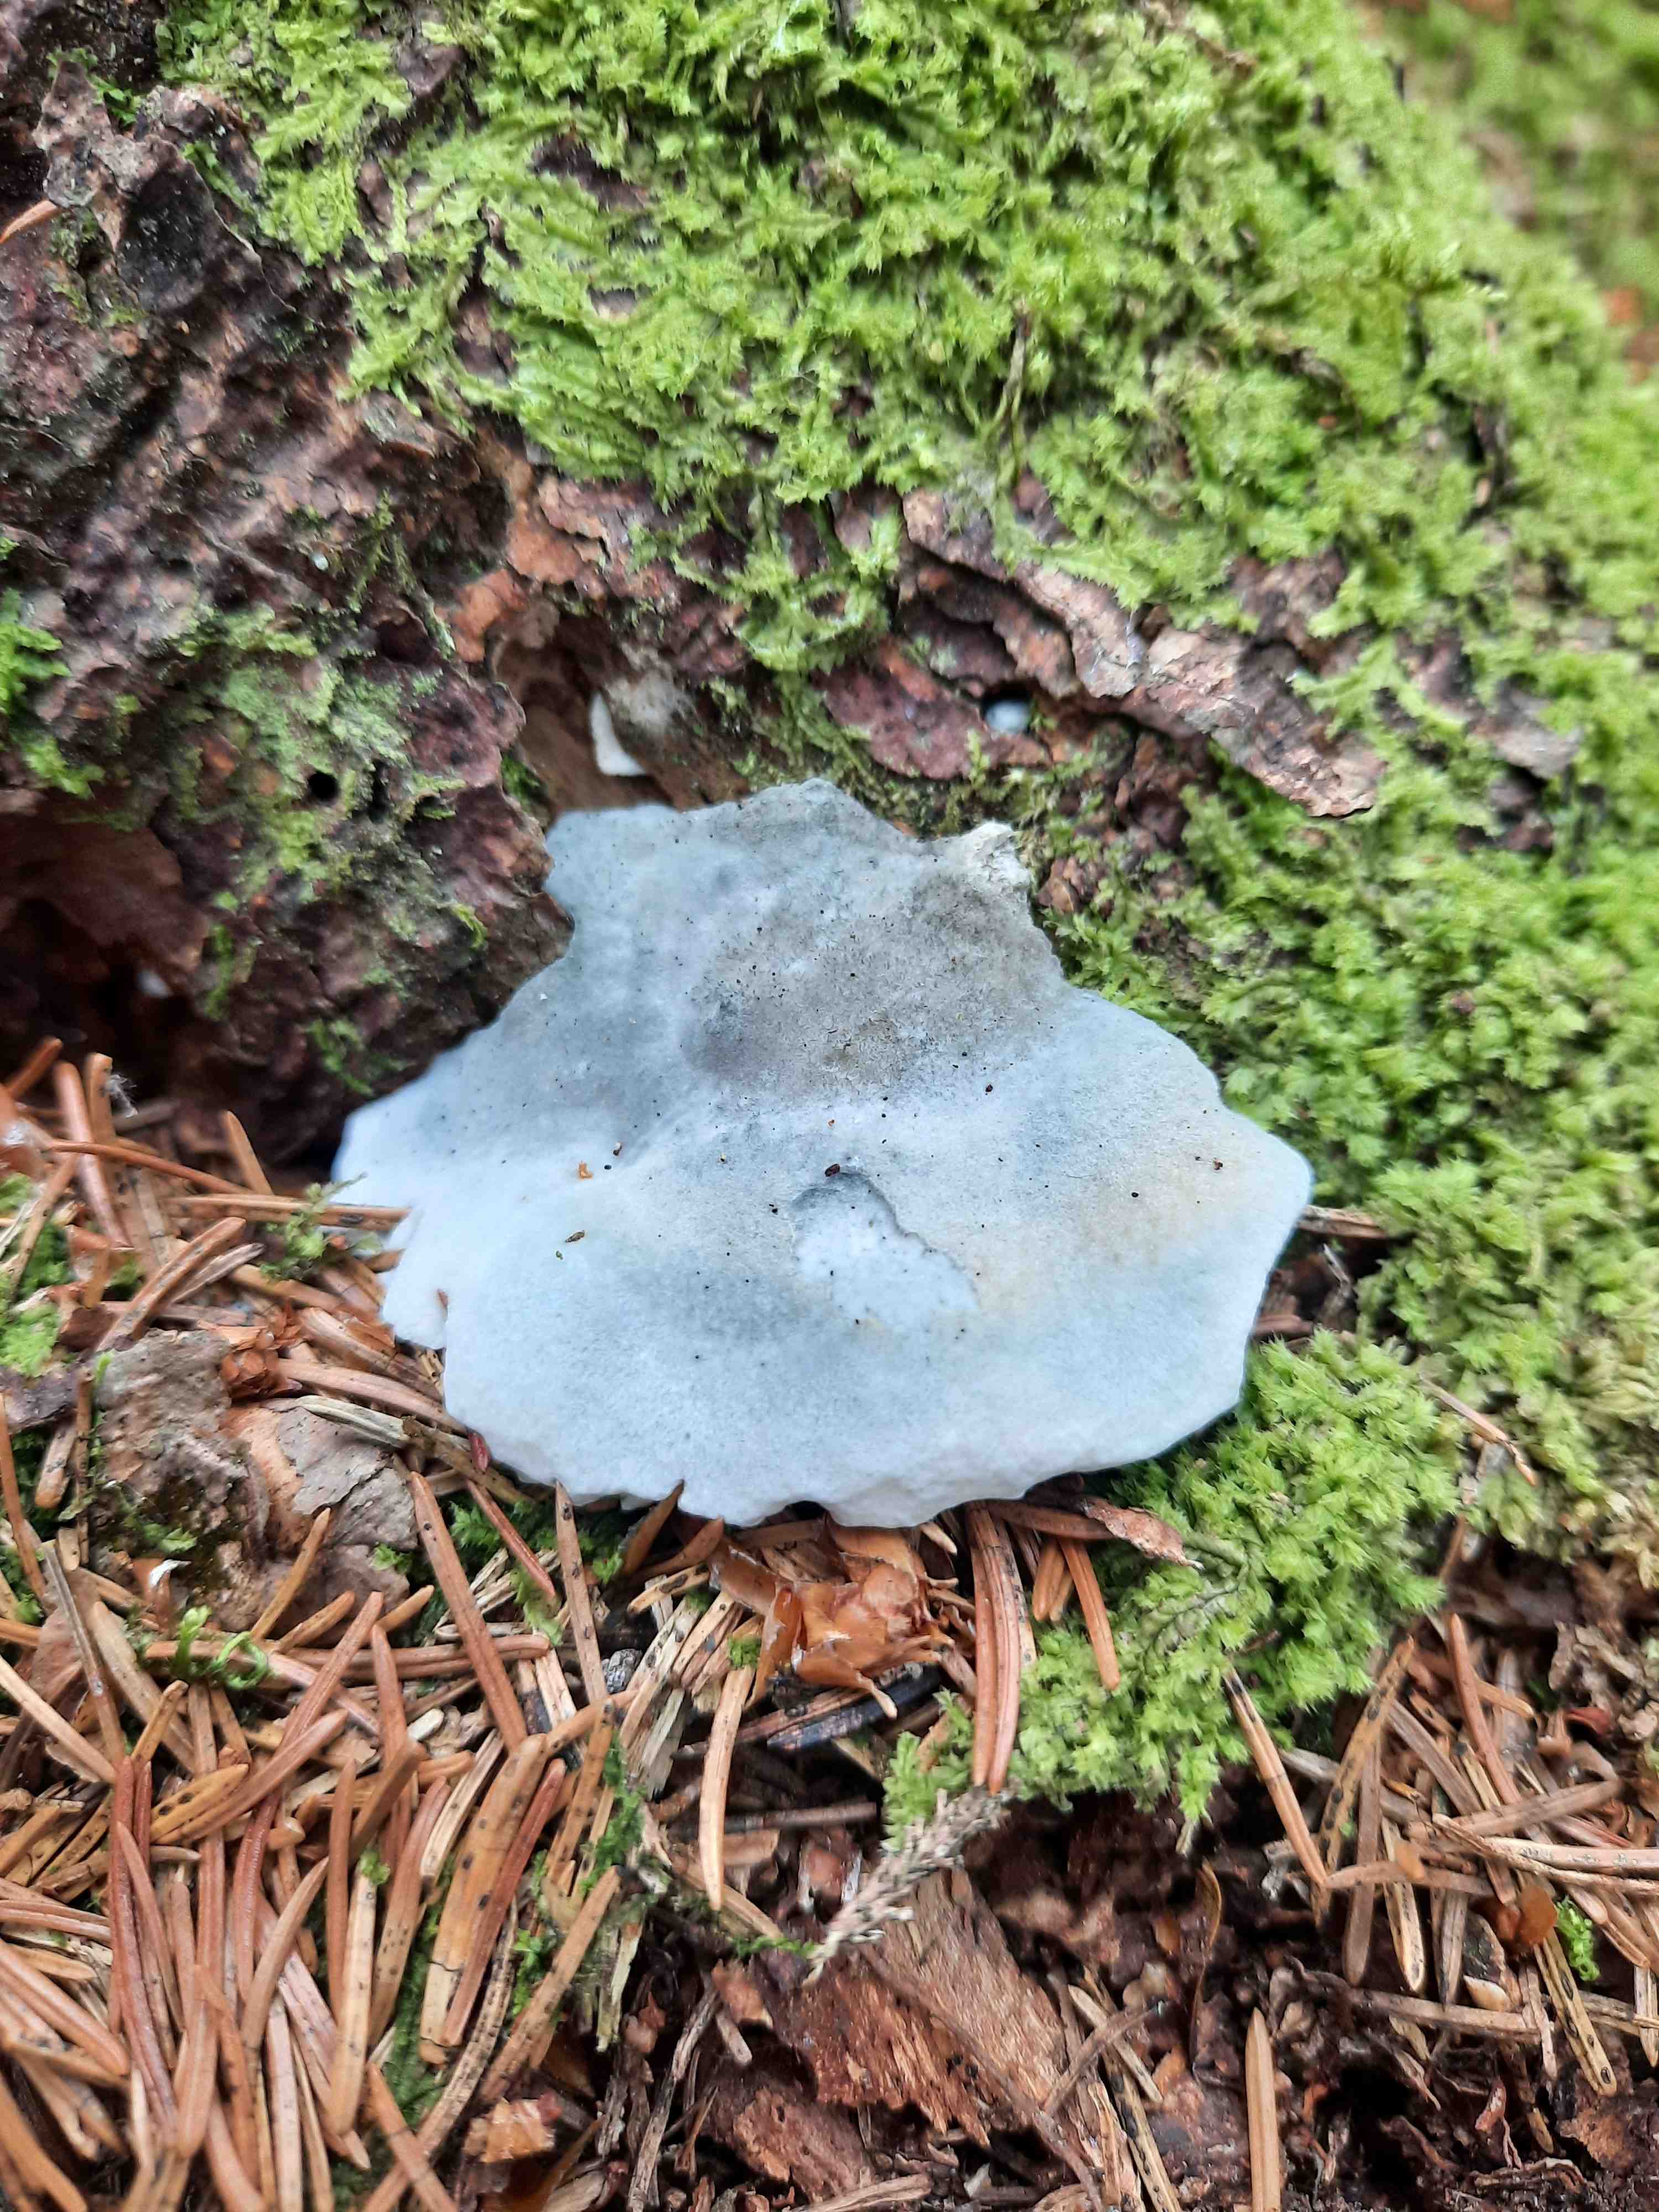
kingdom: Fungi
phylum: Basidiomycota
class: Agaricomycetes
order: Polyporales
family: Polyporaceae
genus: Cyanosporus
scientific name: Cyanosporus caesius
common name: blålig kødporesvamp
